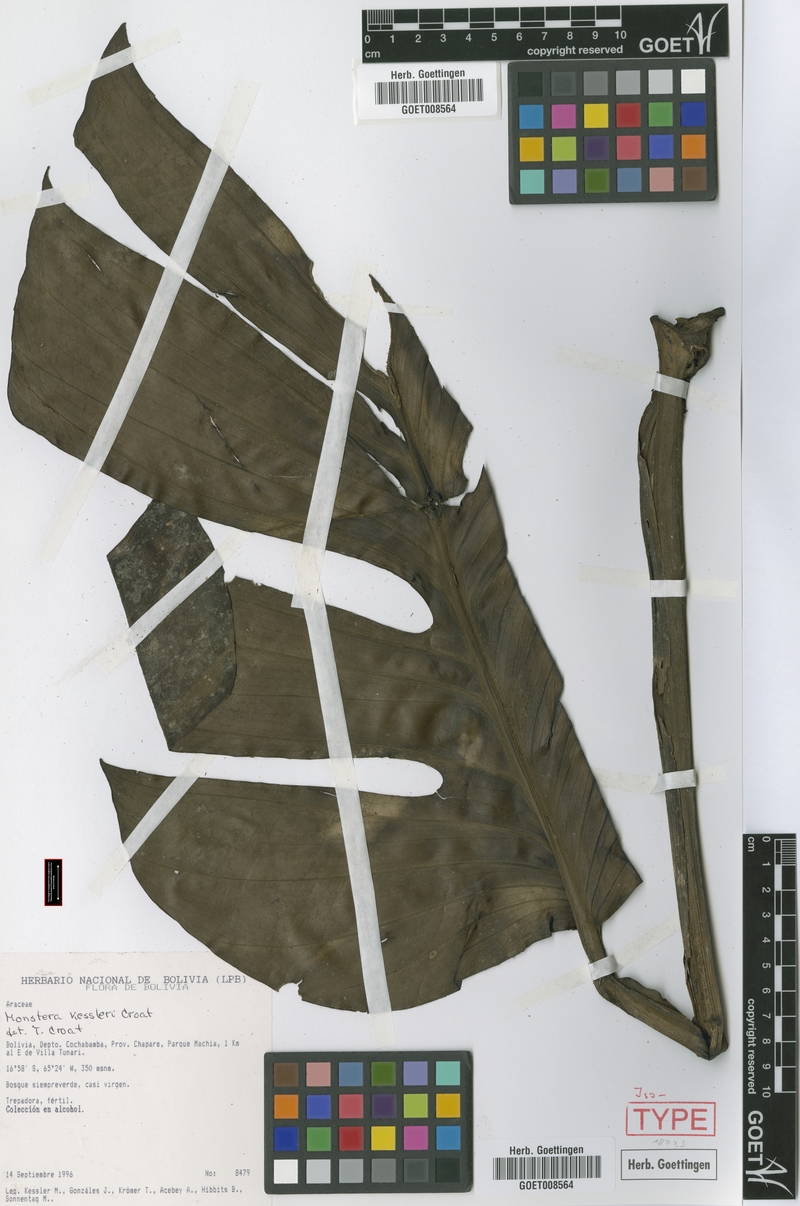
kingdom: Plantae
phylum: Tracheophyta
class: Liliopsida
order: Alismatales
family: Araceae
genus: Monstera
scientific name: Monstera kessleri
